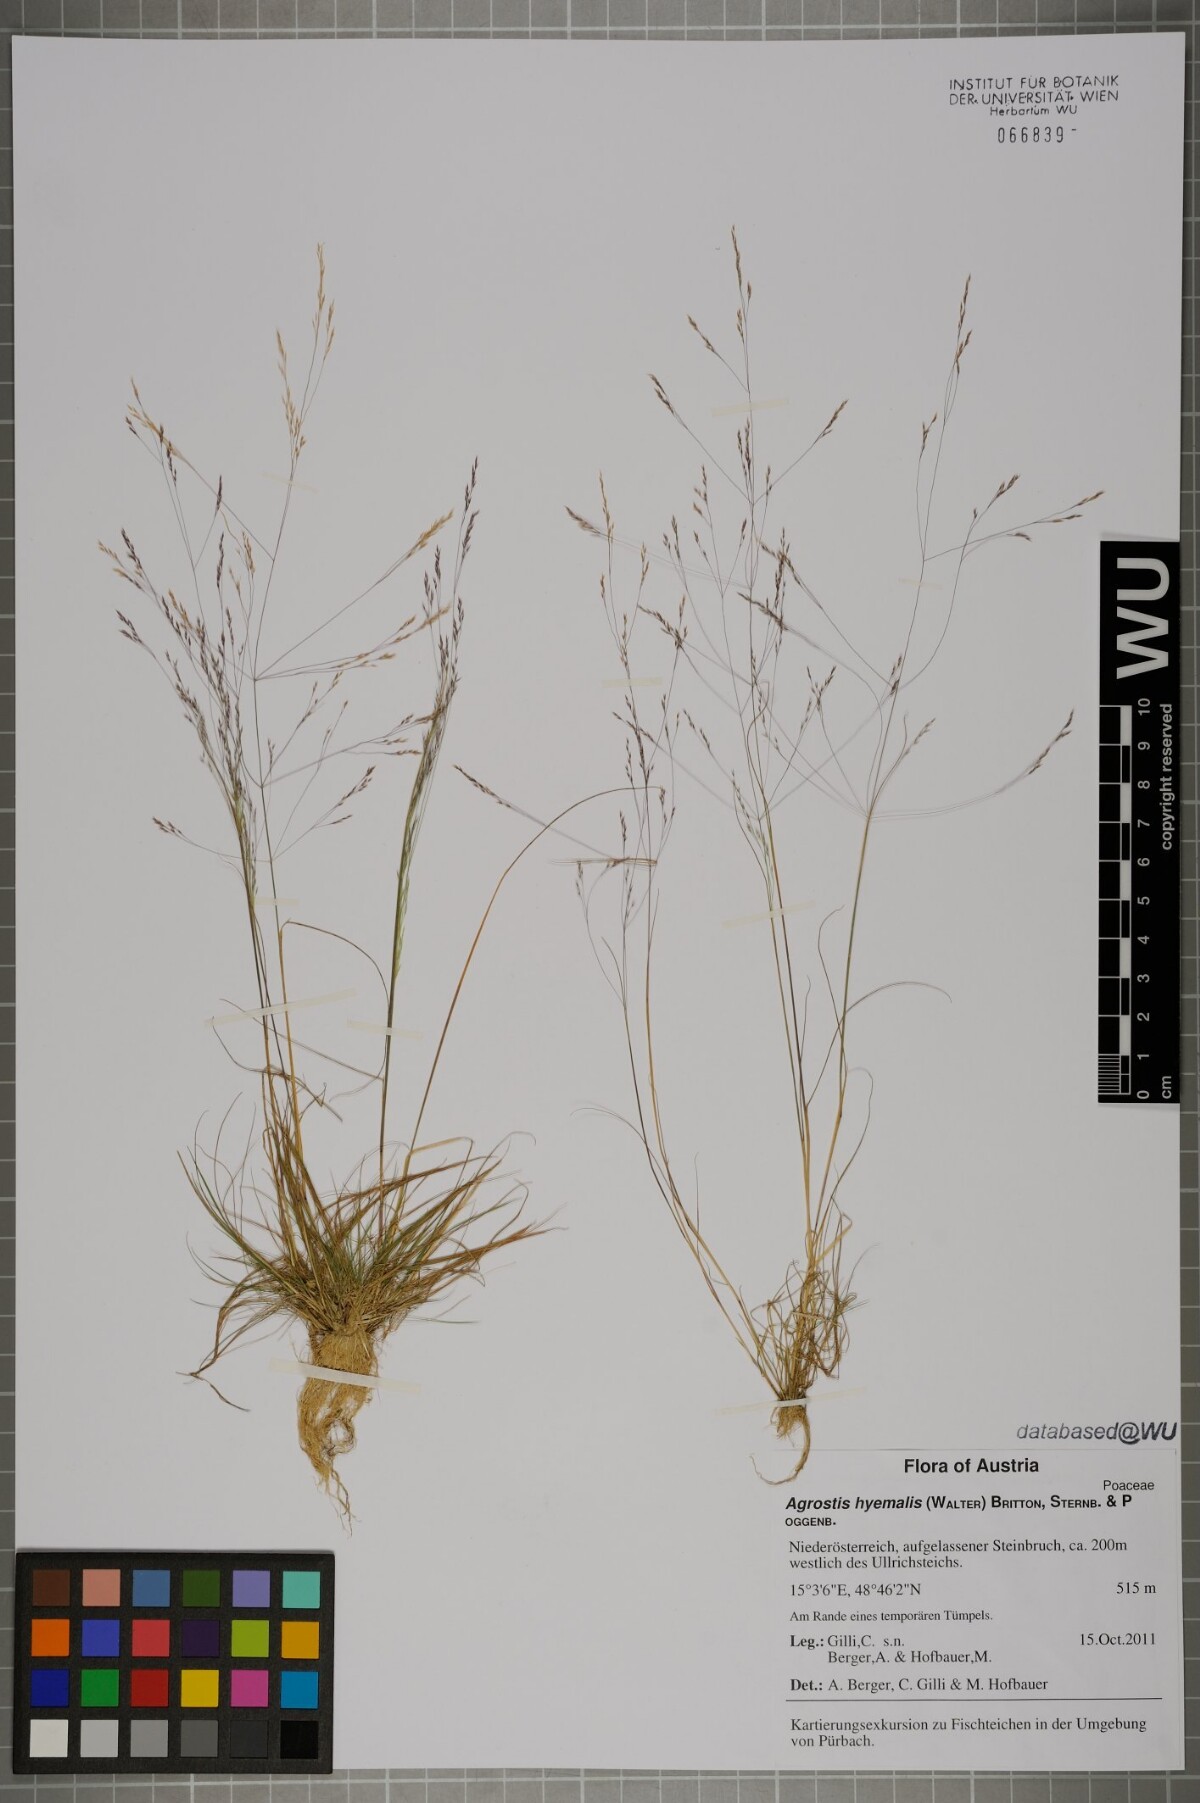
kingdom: Plantae
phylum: Tracheophyta
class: Liliopsida
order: Poales
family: Poaceae
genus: Agrostis
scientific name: Agrostis hyemalis
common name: Small bent
